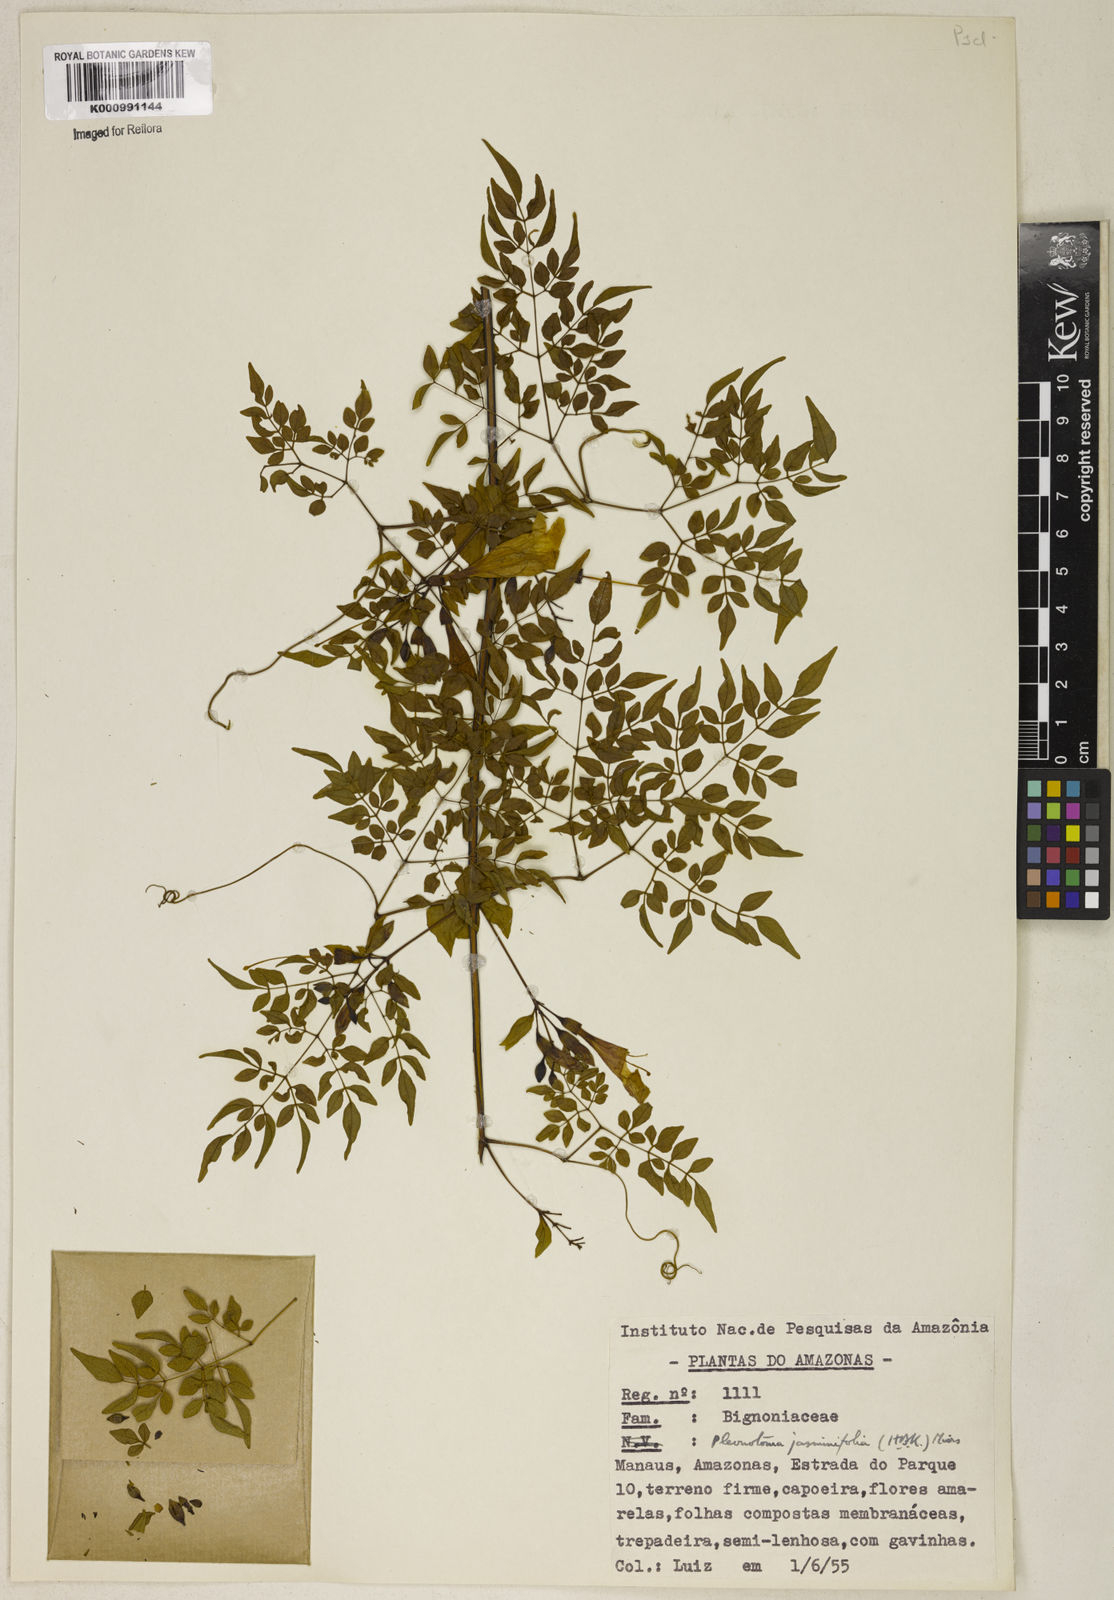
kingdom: Plantae
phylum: Tracheophyta
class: Magnoliopsida
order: Lamiales
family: Bignoniaceae
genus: Pleonotoma
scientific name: Pleonotoma jasminifolia
